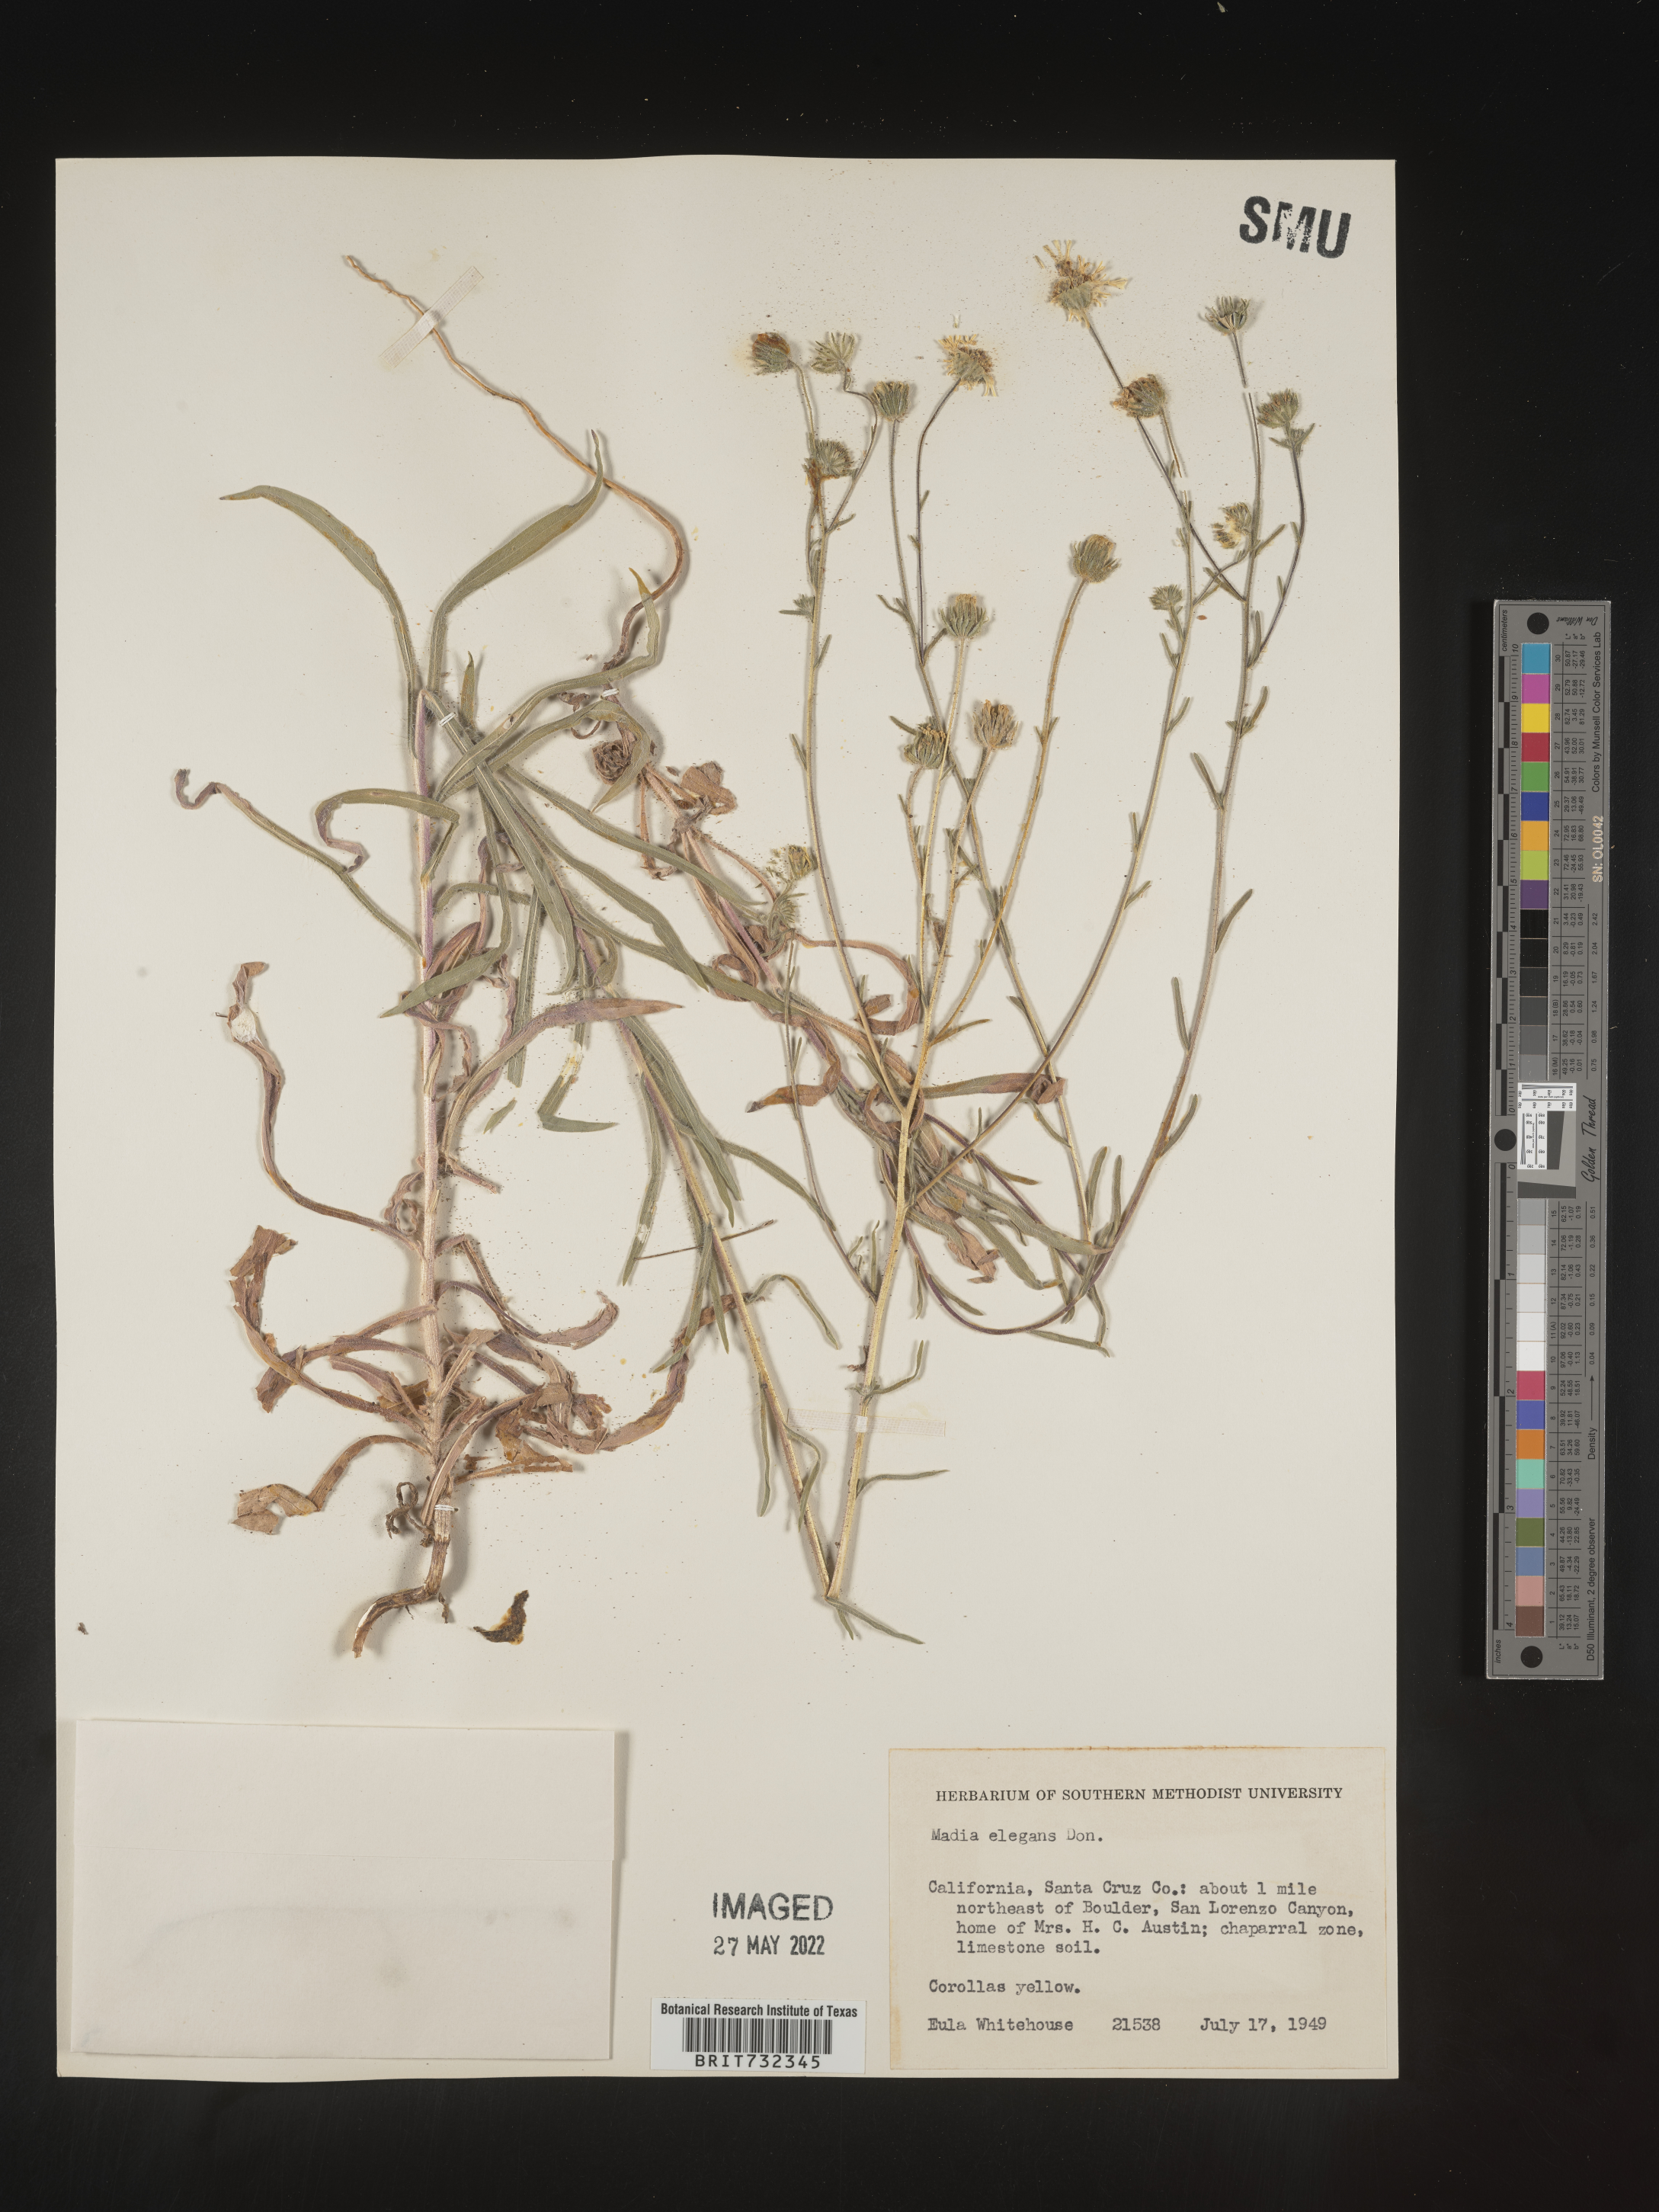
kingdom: Plantae
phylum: Tracheophyta
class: Magnoliopsida
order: Asterales
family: Asteraceae
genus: Madia
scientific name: Madia
